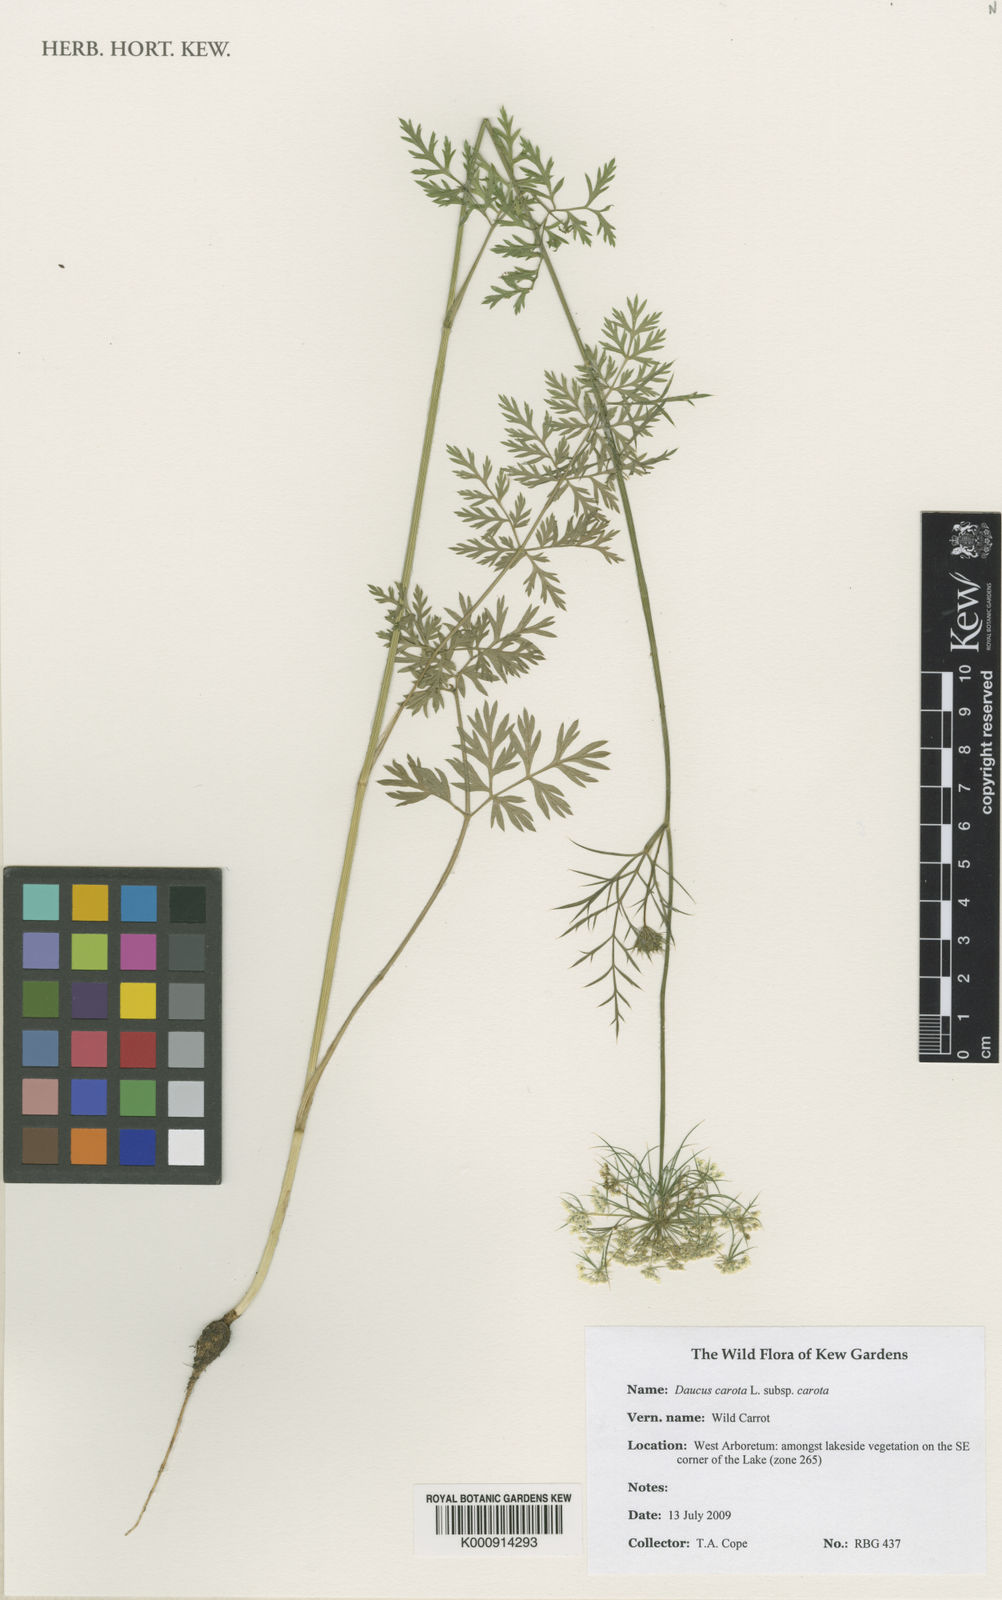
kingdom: Plantae
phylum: Tracheophyta
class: Magnoliopsida
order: Apiales
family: Apiaceae
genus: Daucus
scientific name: Daucus carota
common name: Wild carrot
